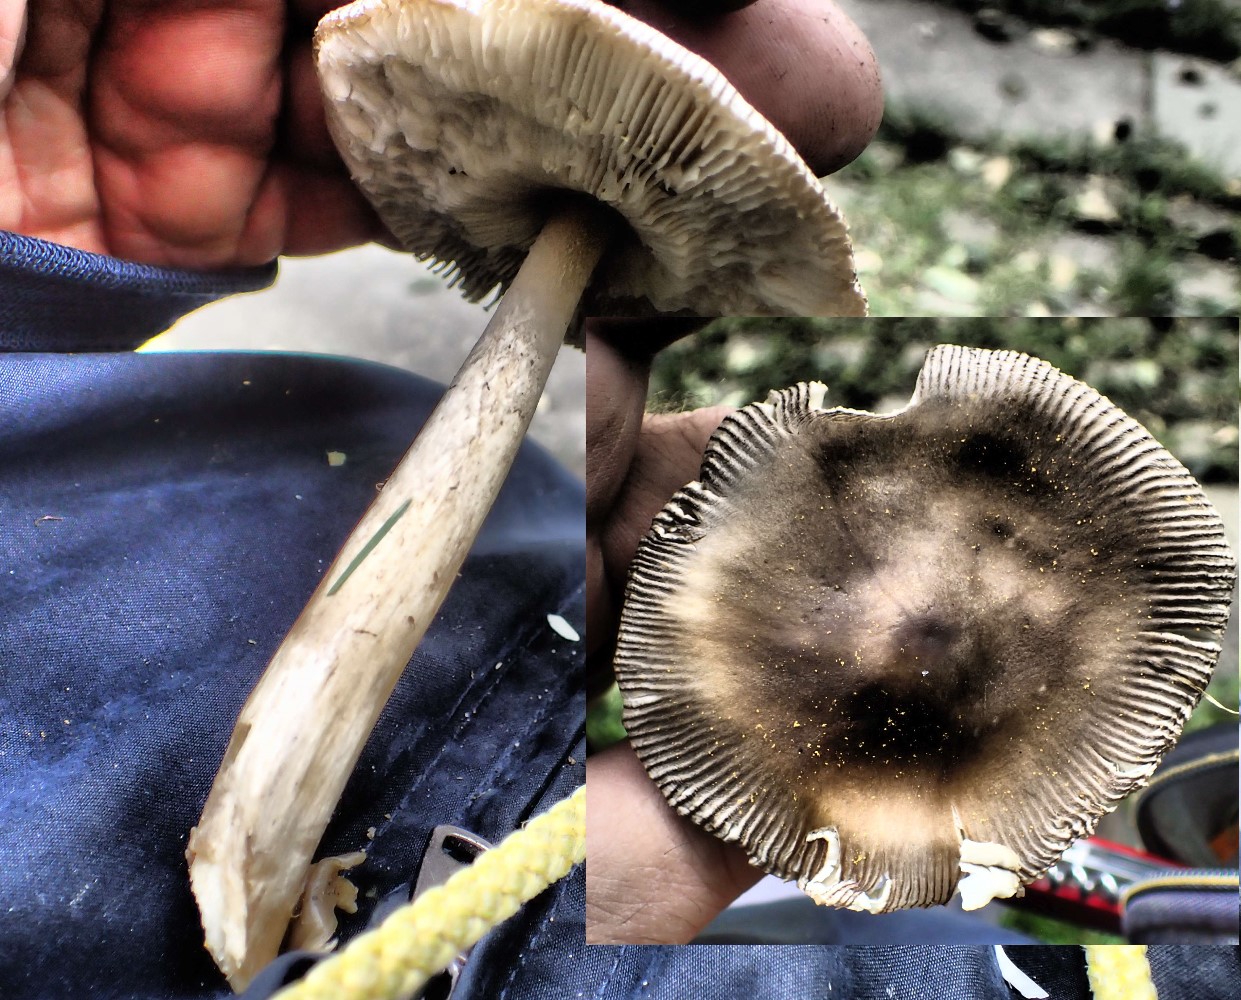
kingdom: Fungi
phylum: Basidiomycota
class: Agaricomycetes
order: Agaricales
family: Amanitaceae
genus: Amanita
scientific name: Amanita submembranacea
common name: gråspættet kam-fluesvamp
